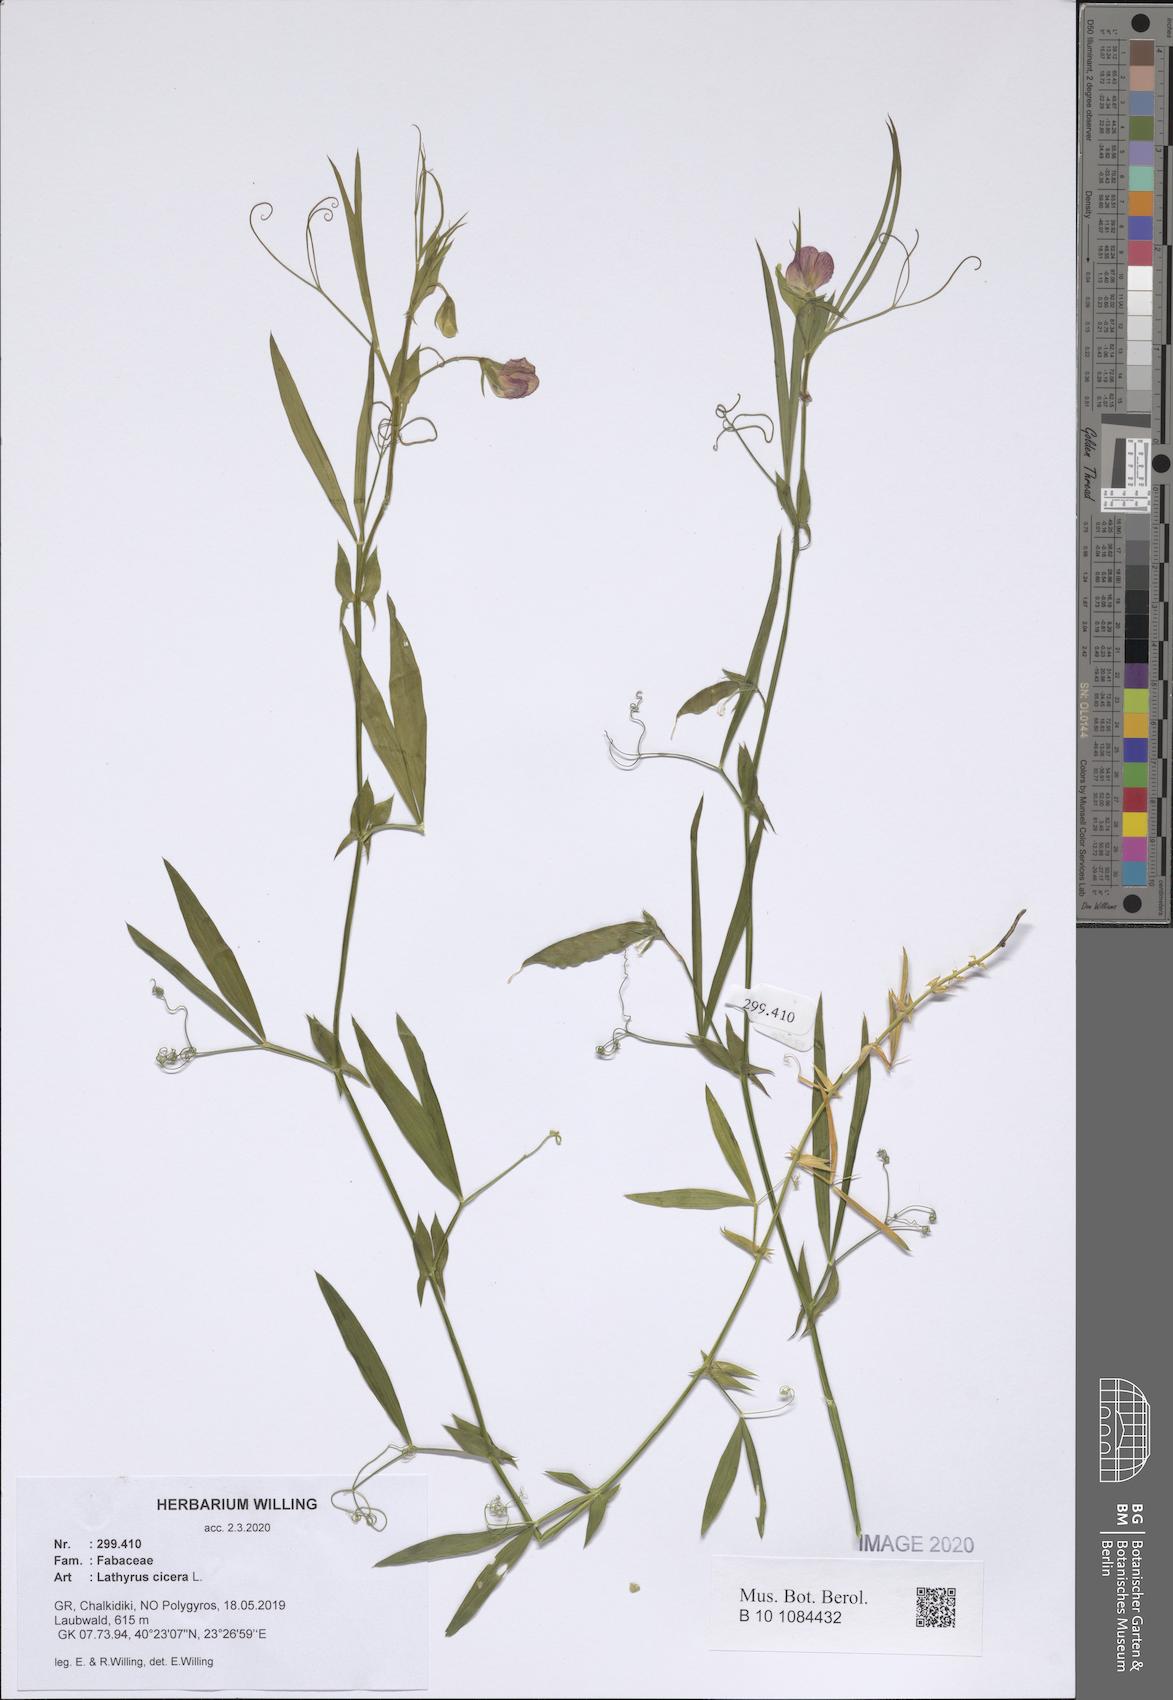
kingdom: Plantae
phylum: Tracheophyta
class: Magnoliopsida
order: Fabales
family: Fabaceae
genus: Lathyrus
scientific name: Lathyrus cicera
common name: Red vetchling
